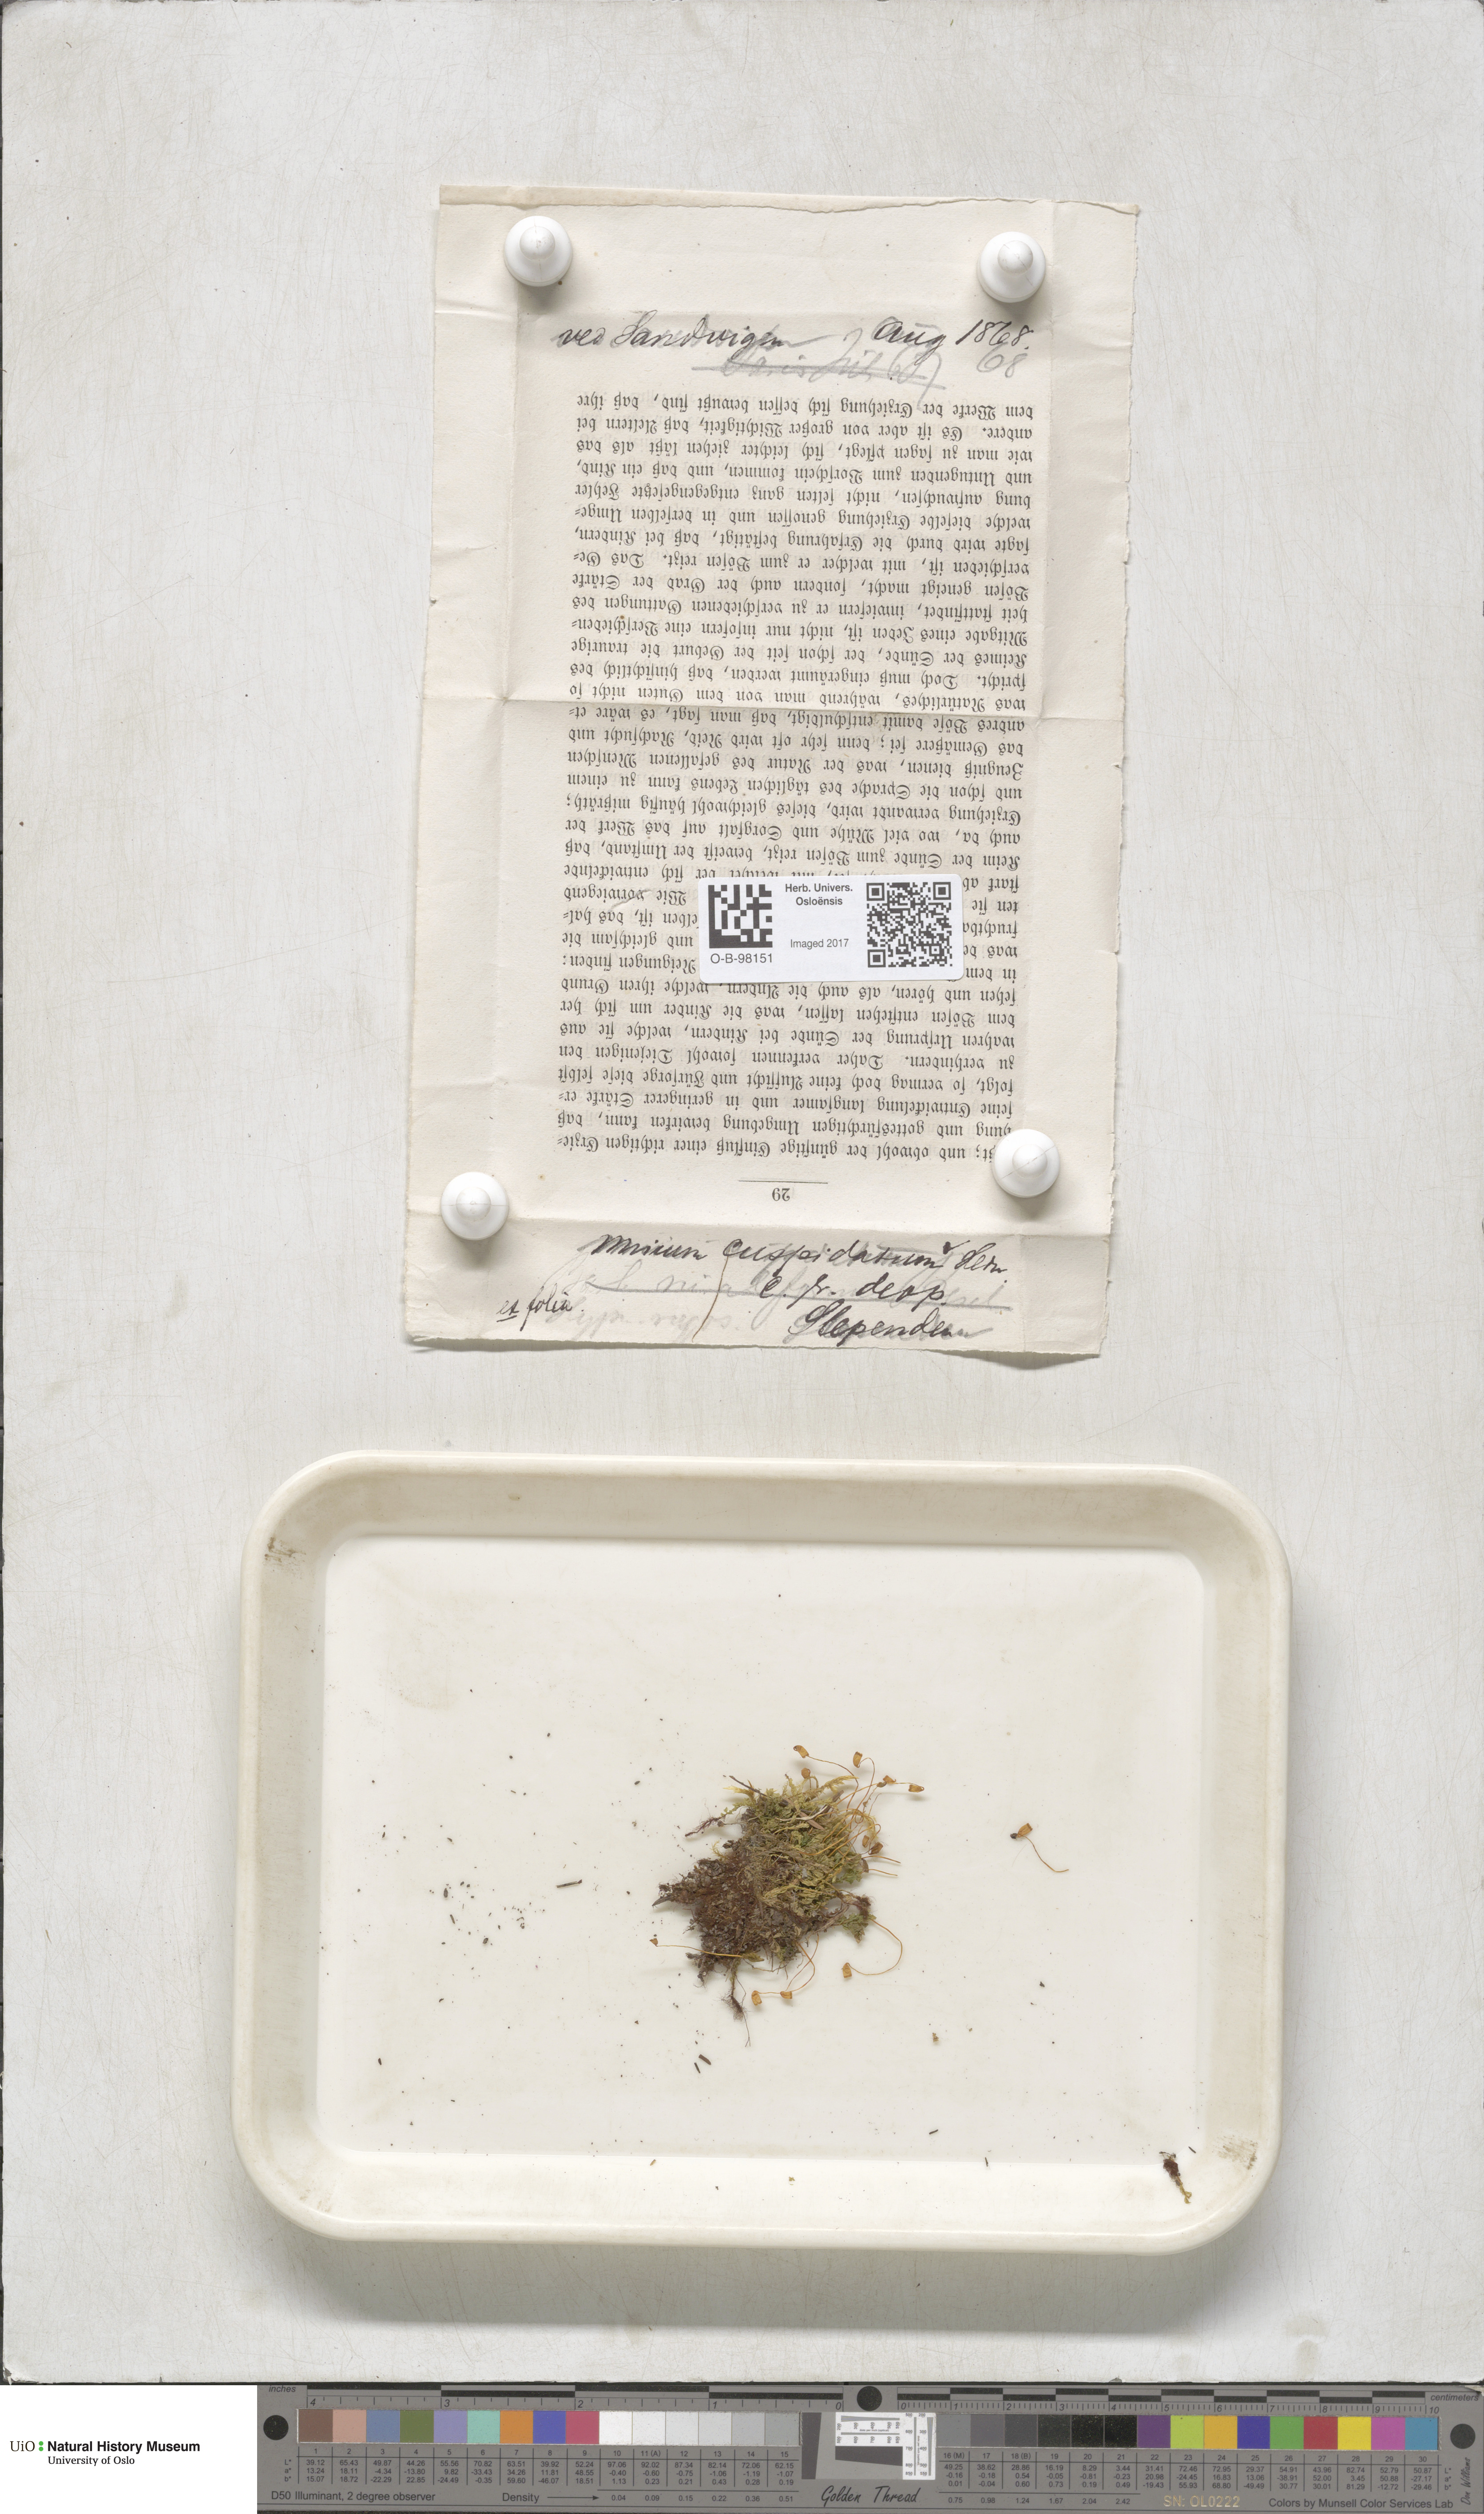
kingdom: Plantae
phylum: Bryophyta
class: Bryopsida
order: Bryales
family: Mniaceae
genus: Plagiomnium
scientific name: Plagiomnium cuspidatum
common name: Woodsy leafy moss
